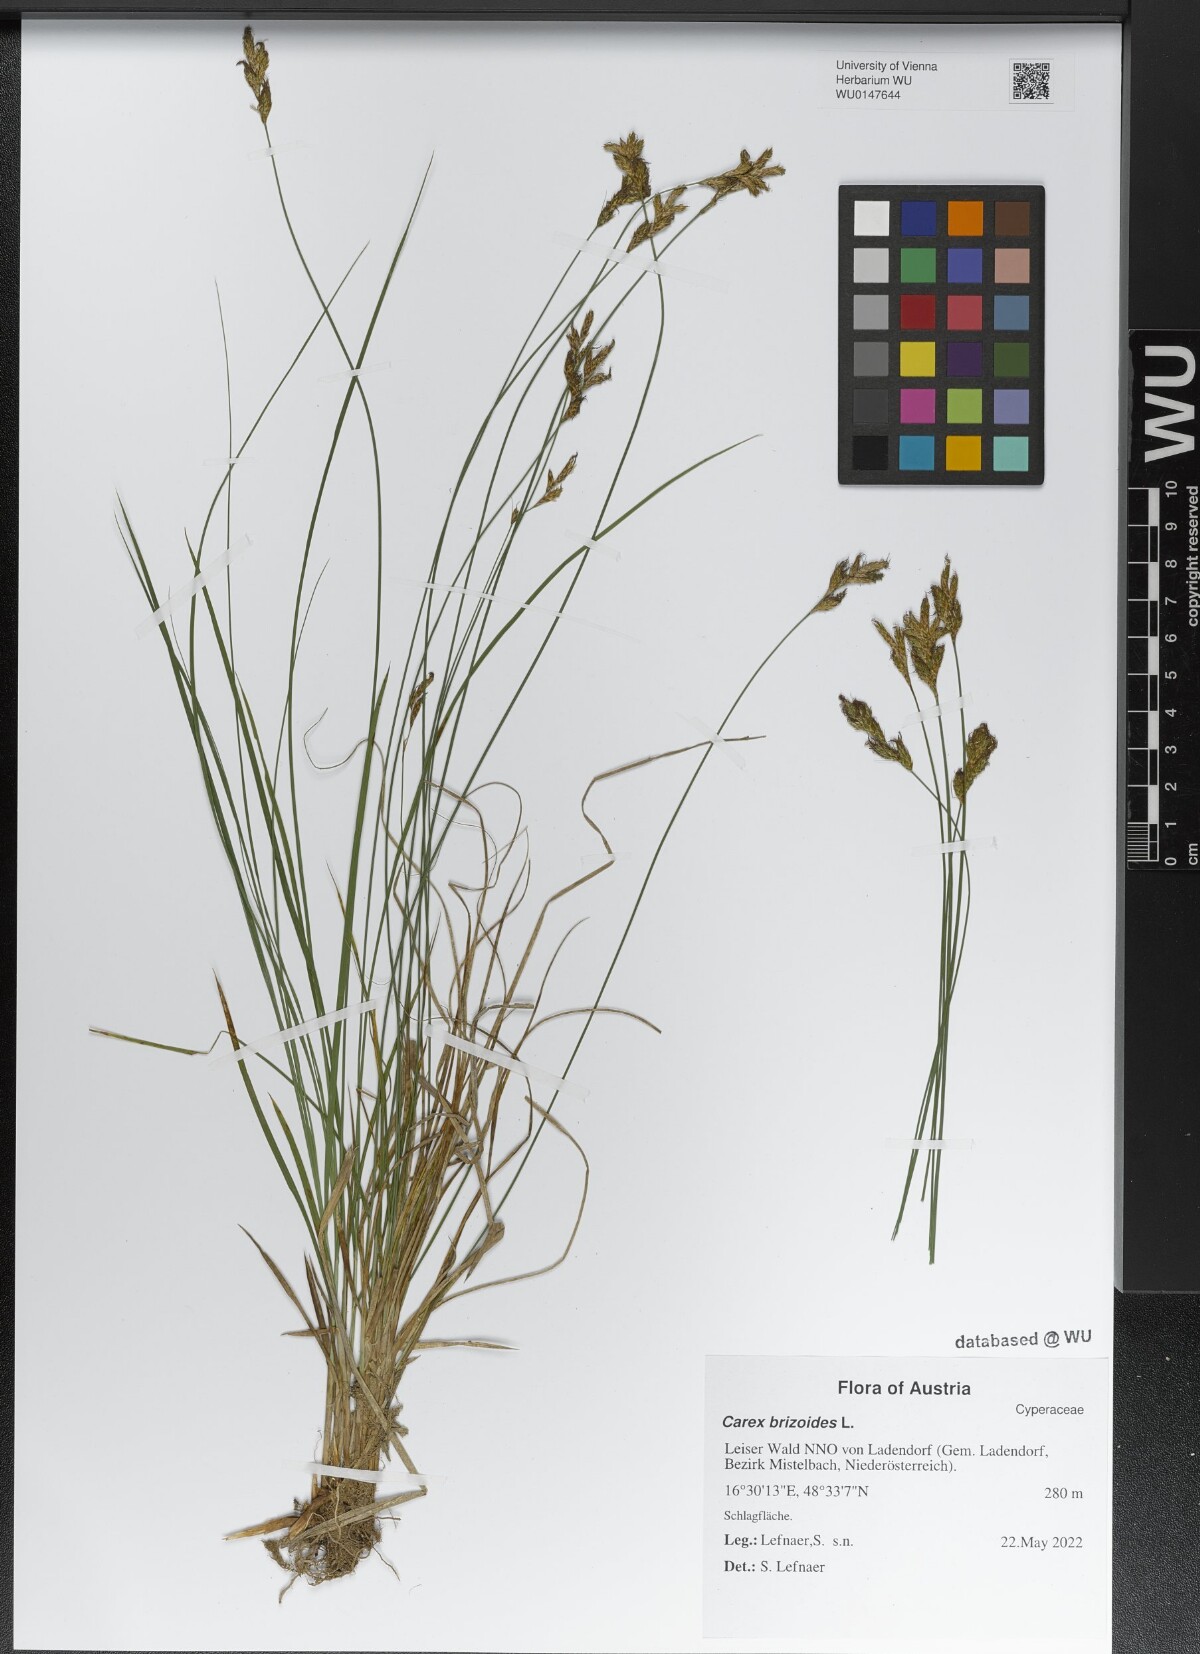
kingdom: Plantae
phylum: Tracheophyta
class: Liliopsida
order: Poales
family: Cyperaceae
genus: Carex
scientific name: Carex brizoides
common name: Quaking-grass sedge
